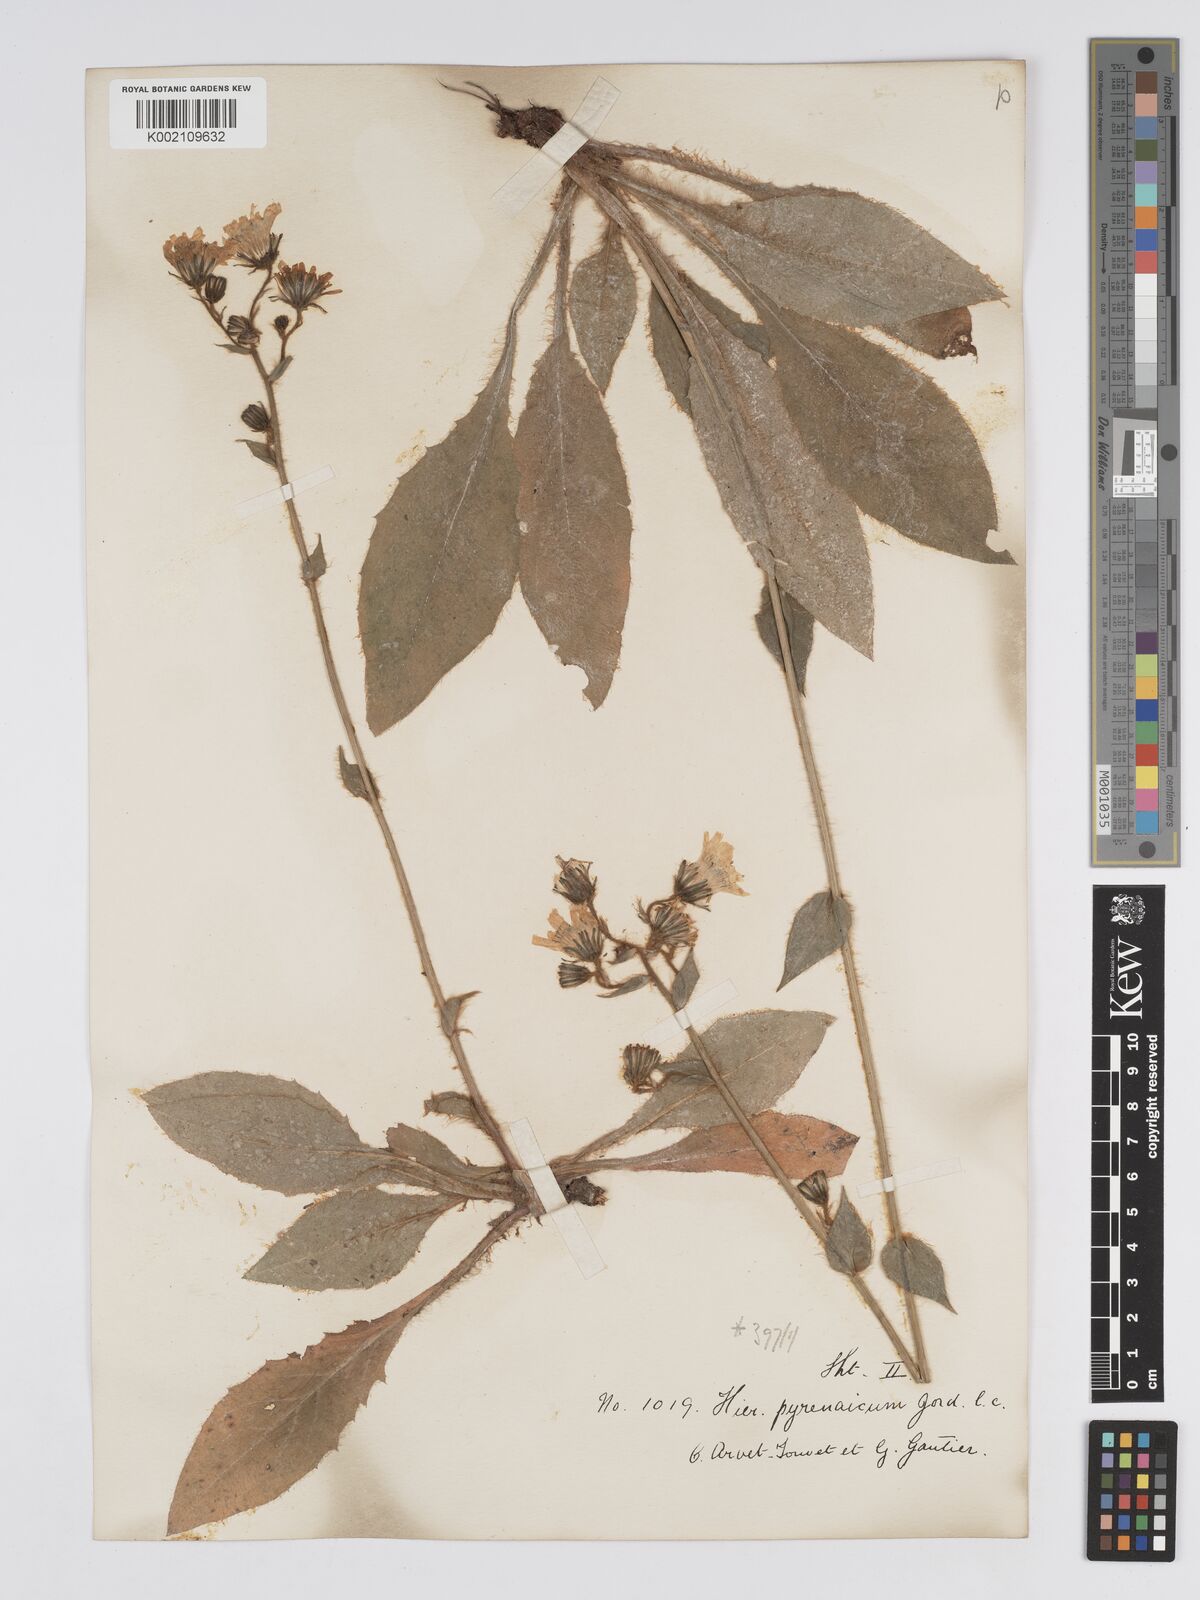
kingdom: Plantae
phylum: Tracheophyta
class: Magnoliopsida
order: Asterales
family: Asteraceae
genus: Hieracium
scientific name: Hieracium nobile
